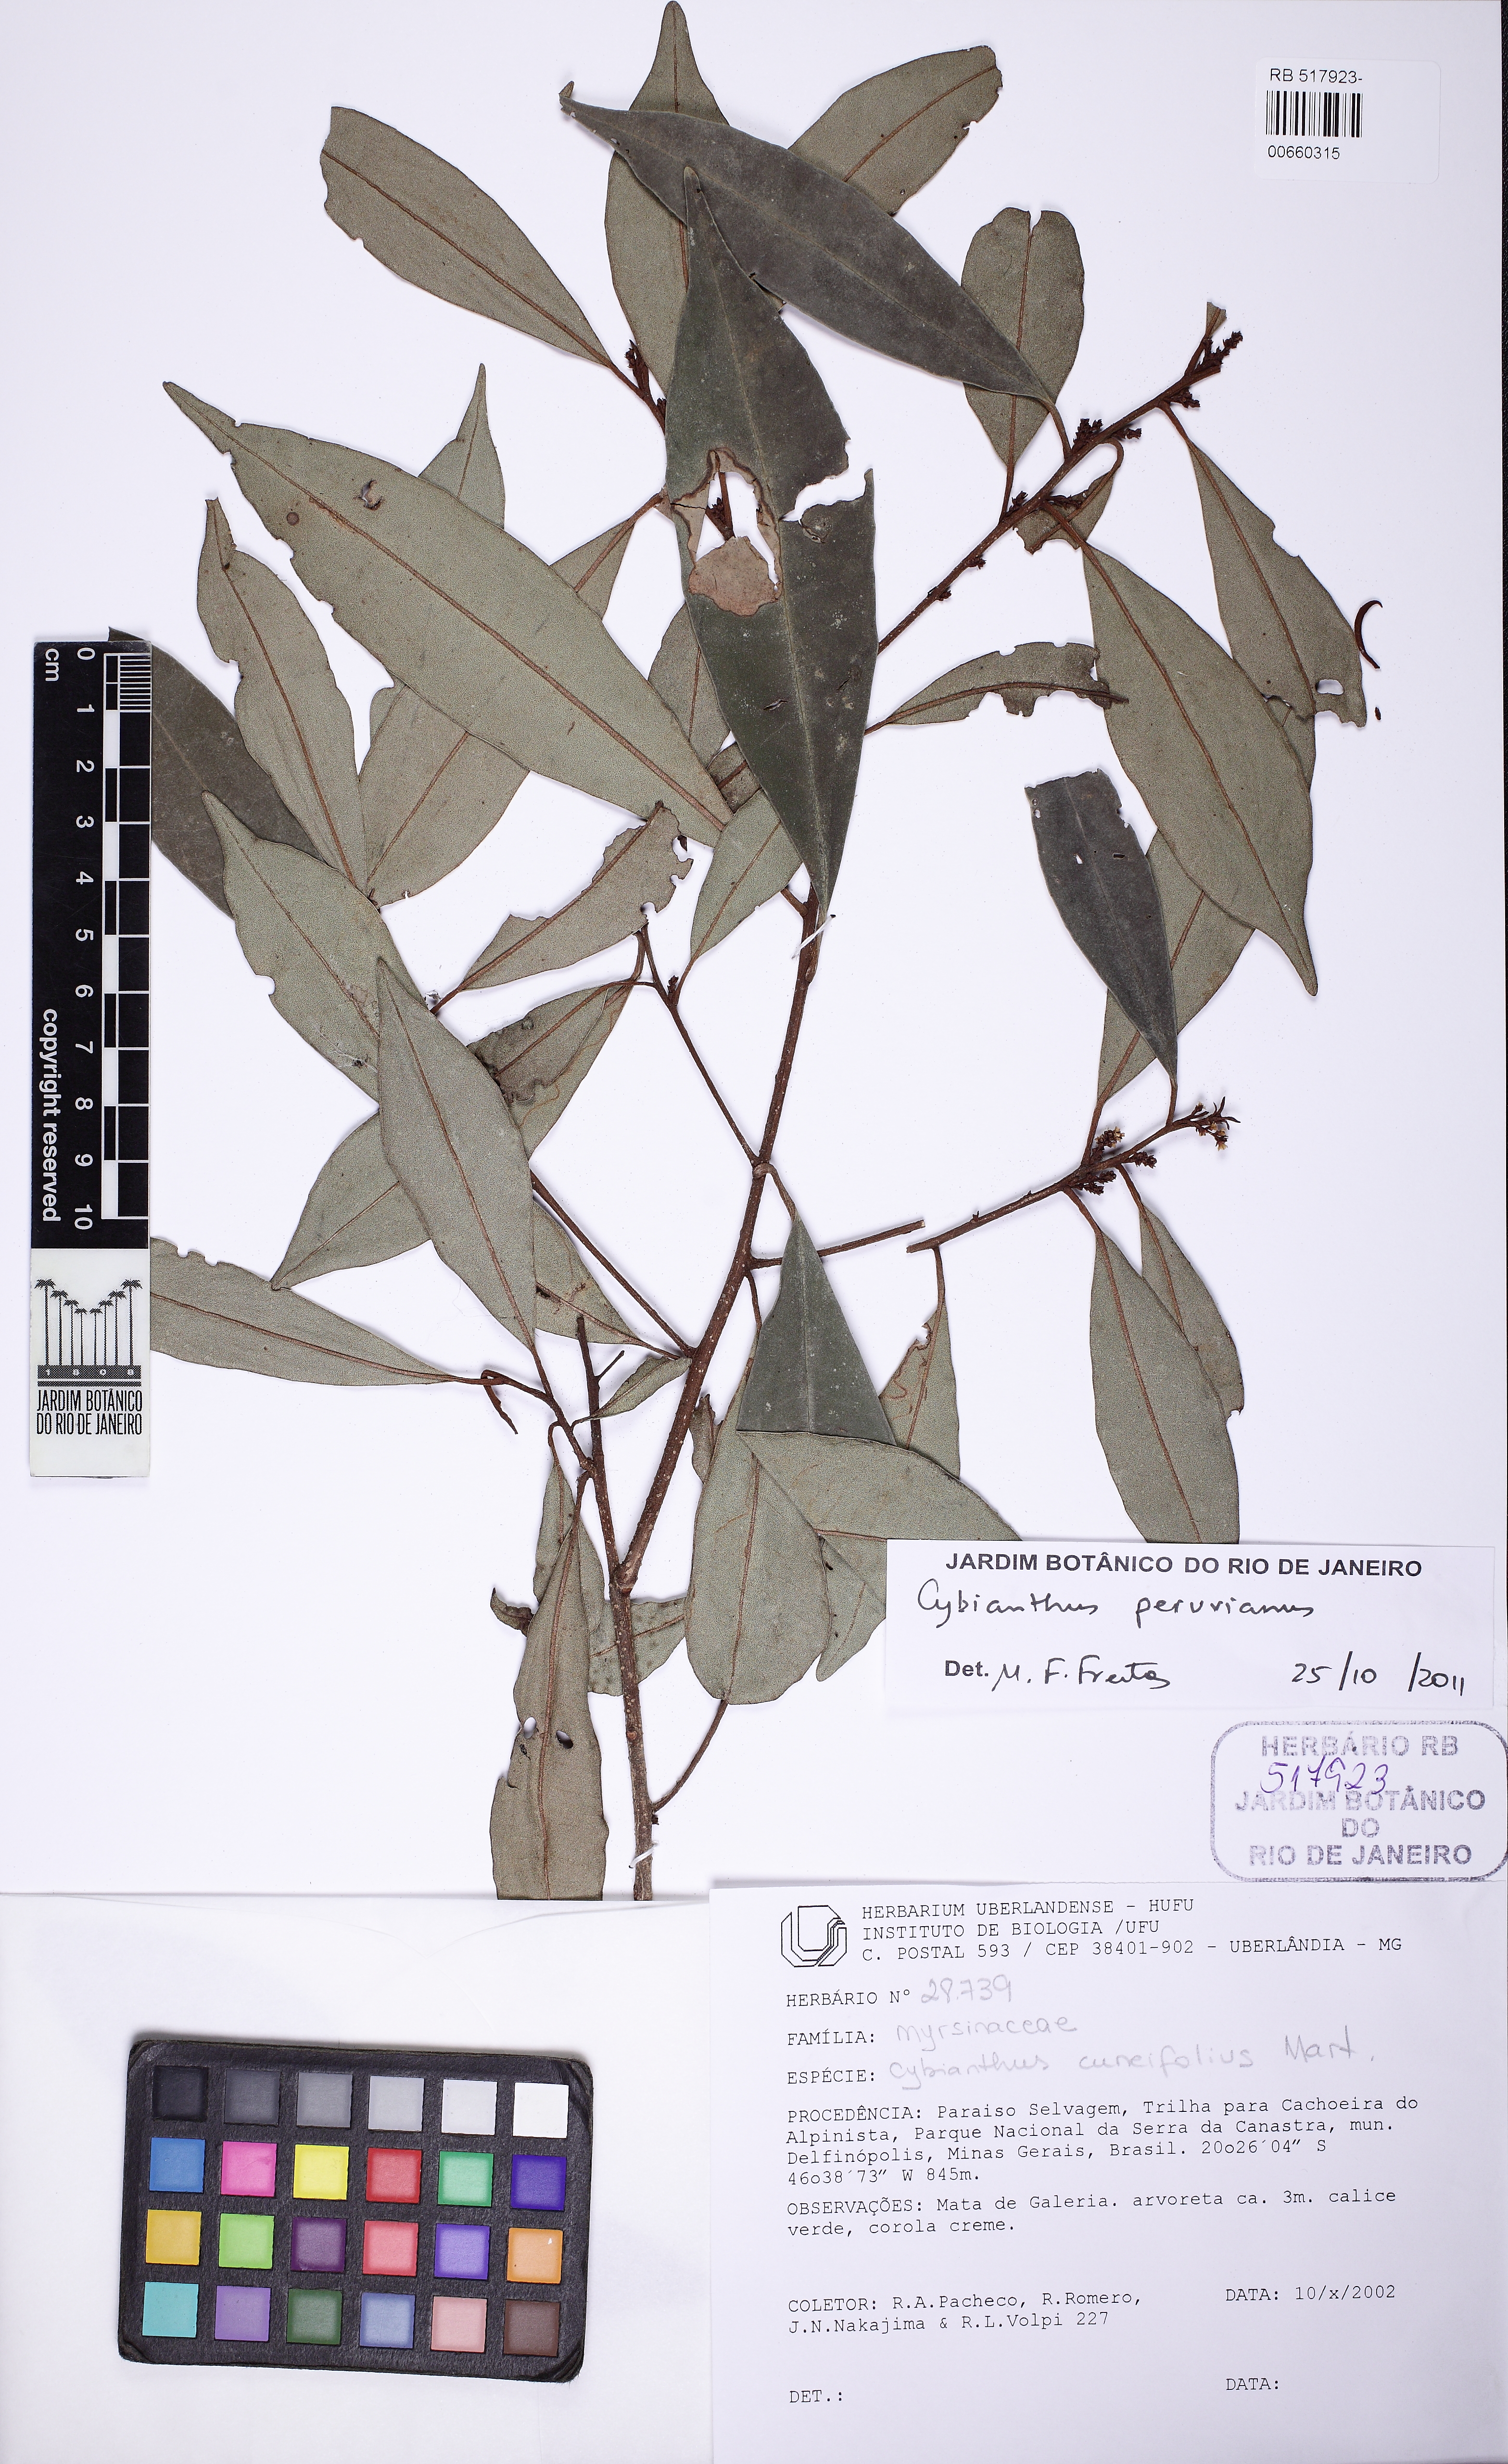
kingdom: Plantae
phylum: Tracheophyta
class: Magnoliopsida
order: Ericales
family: Primulaceae
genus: Cybianthus
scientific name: Cybianthus peruvianus
